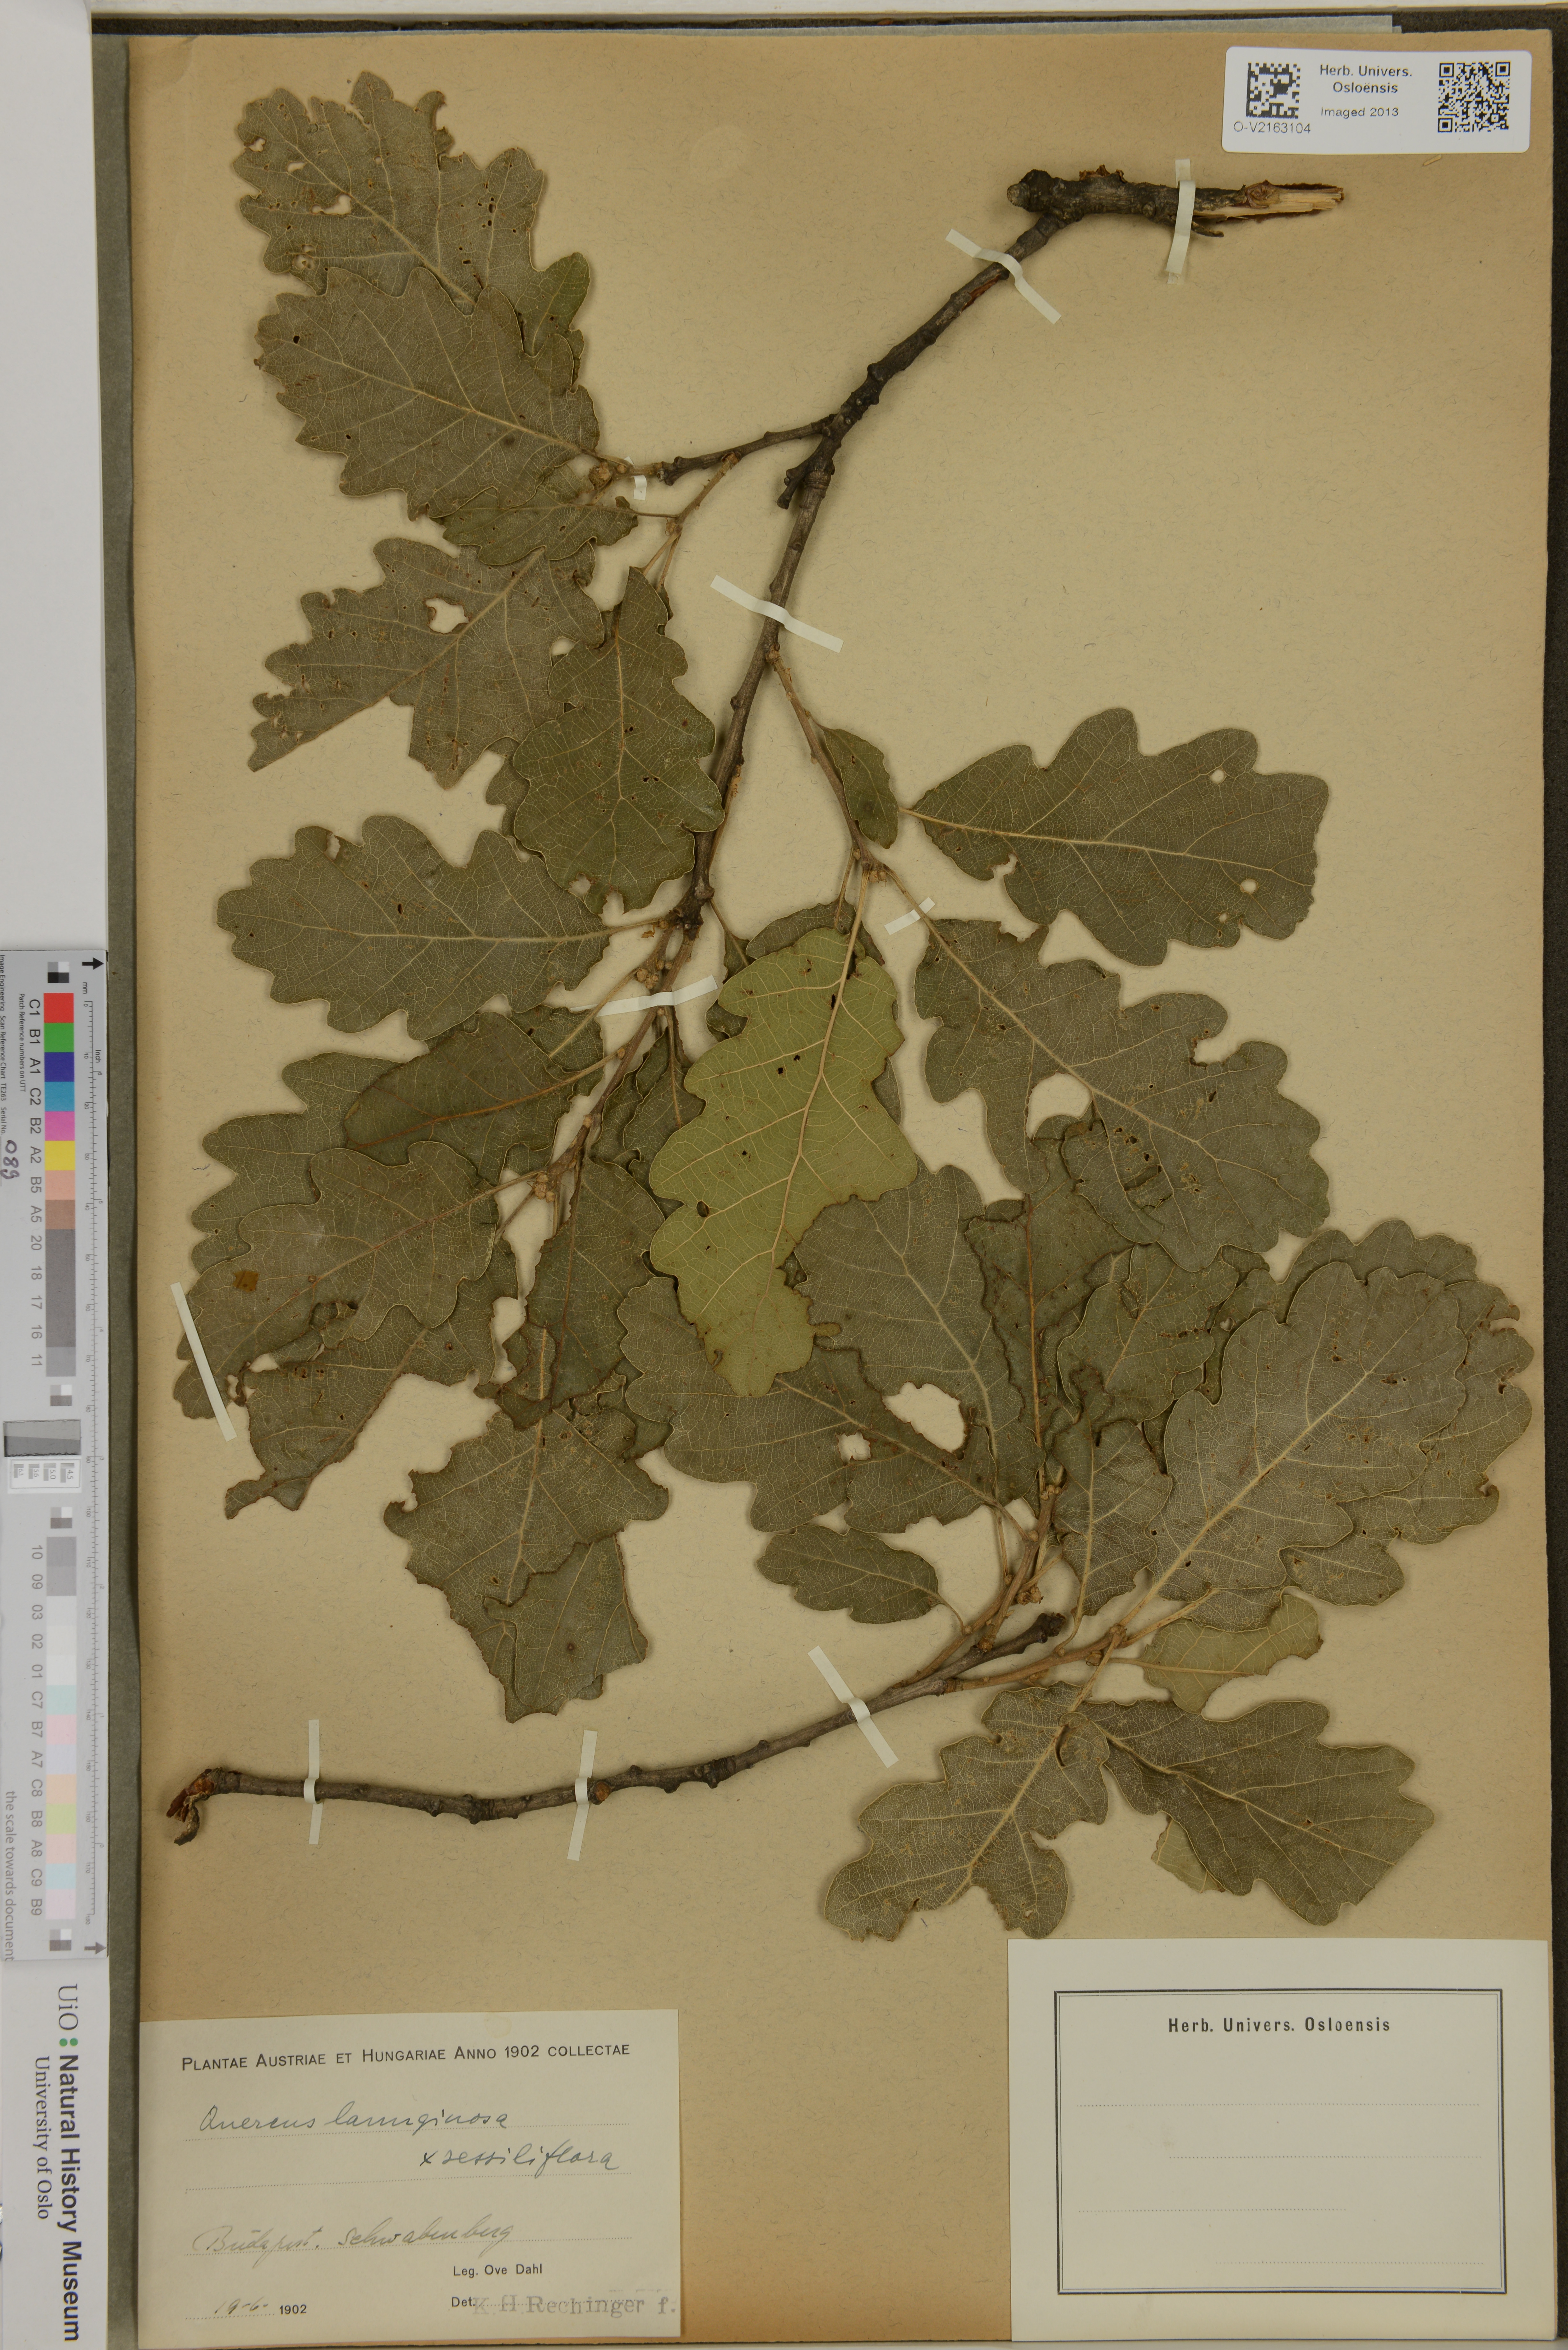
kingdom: Plantae
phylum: Tracheophyta
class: Magnoliopsida
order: Fagales
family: Fagaceae
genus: Quercus
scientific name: Quercus
